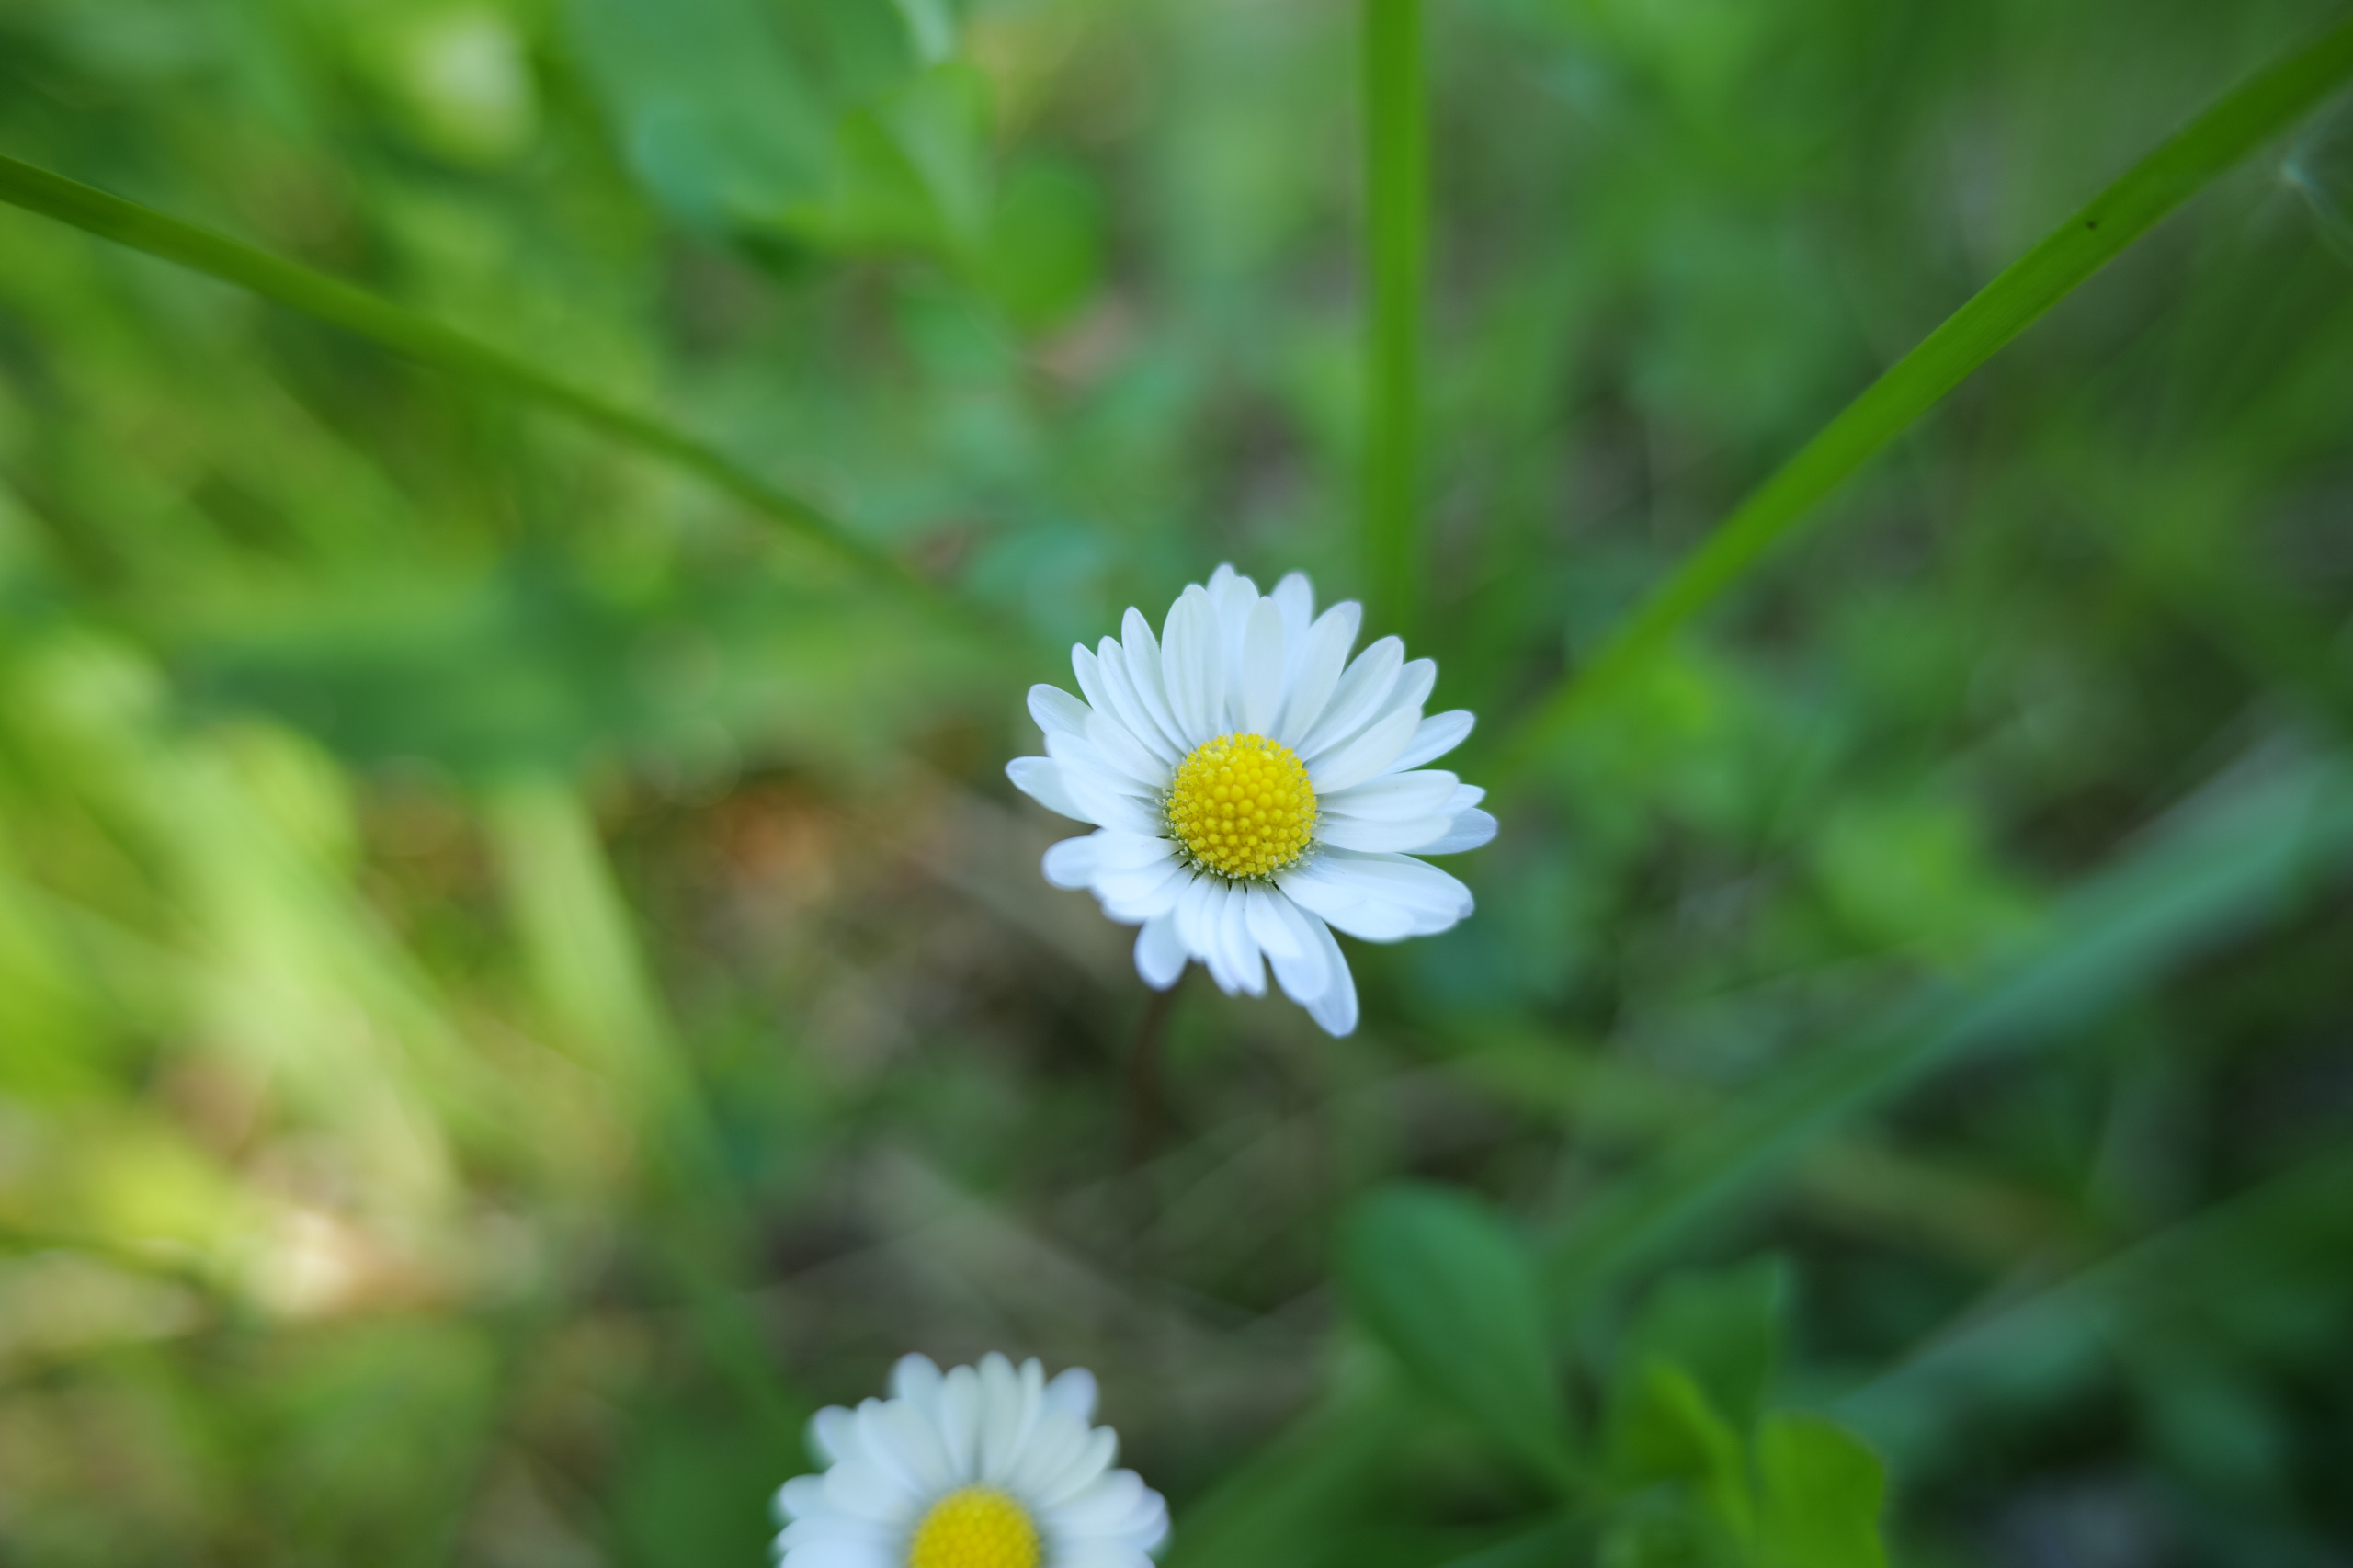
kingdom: Plantae
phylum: Tracheophyta
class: Magnoliopsida
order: Asterales
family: Asteraceae
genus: Bellis
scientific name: Bellis perennis
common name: Tusindfryd
